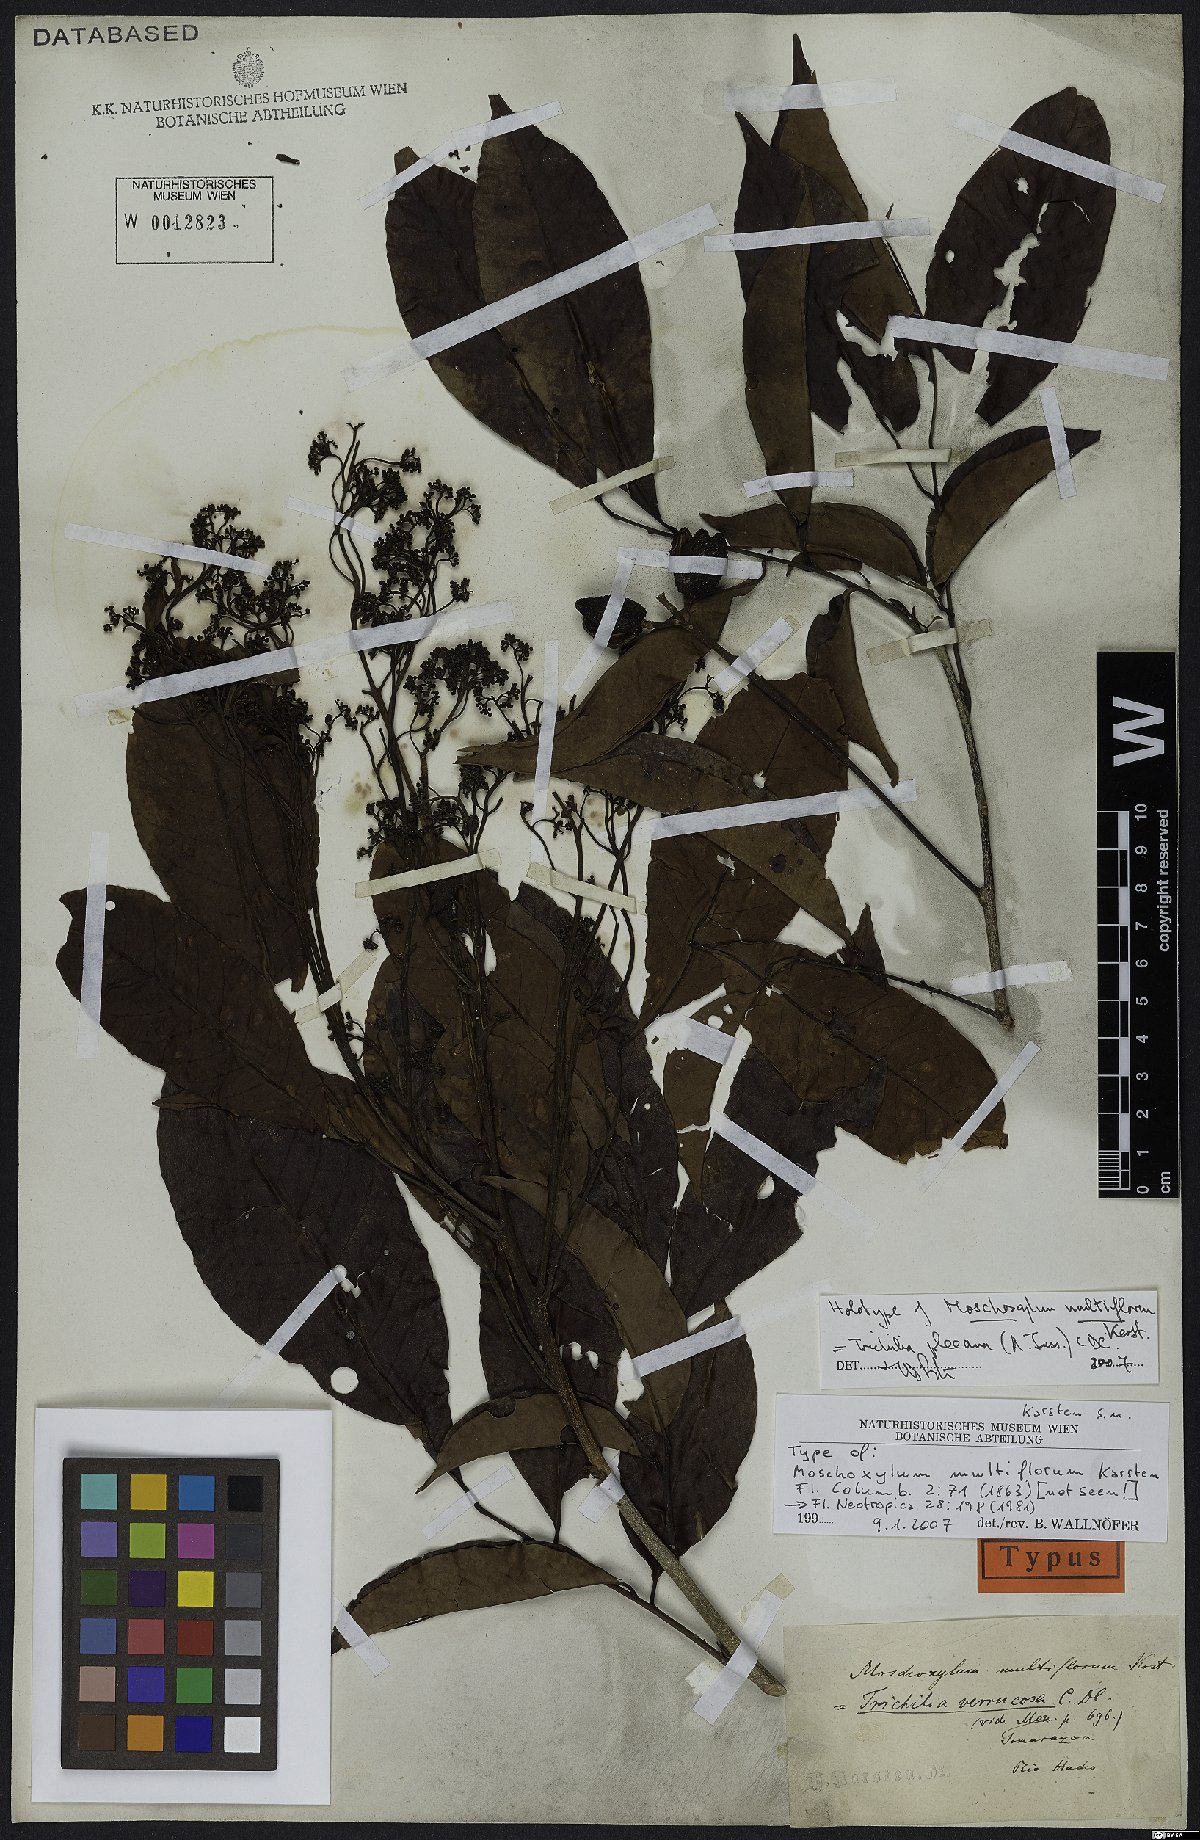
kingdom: Plantae
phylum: Tracheophyta
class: Magnoliopsida
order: Sapindales
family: Meliaceae
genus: Trichilia
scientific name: Trichilia pleeana
